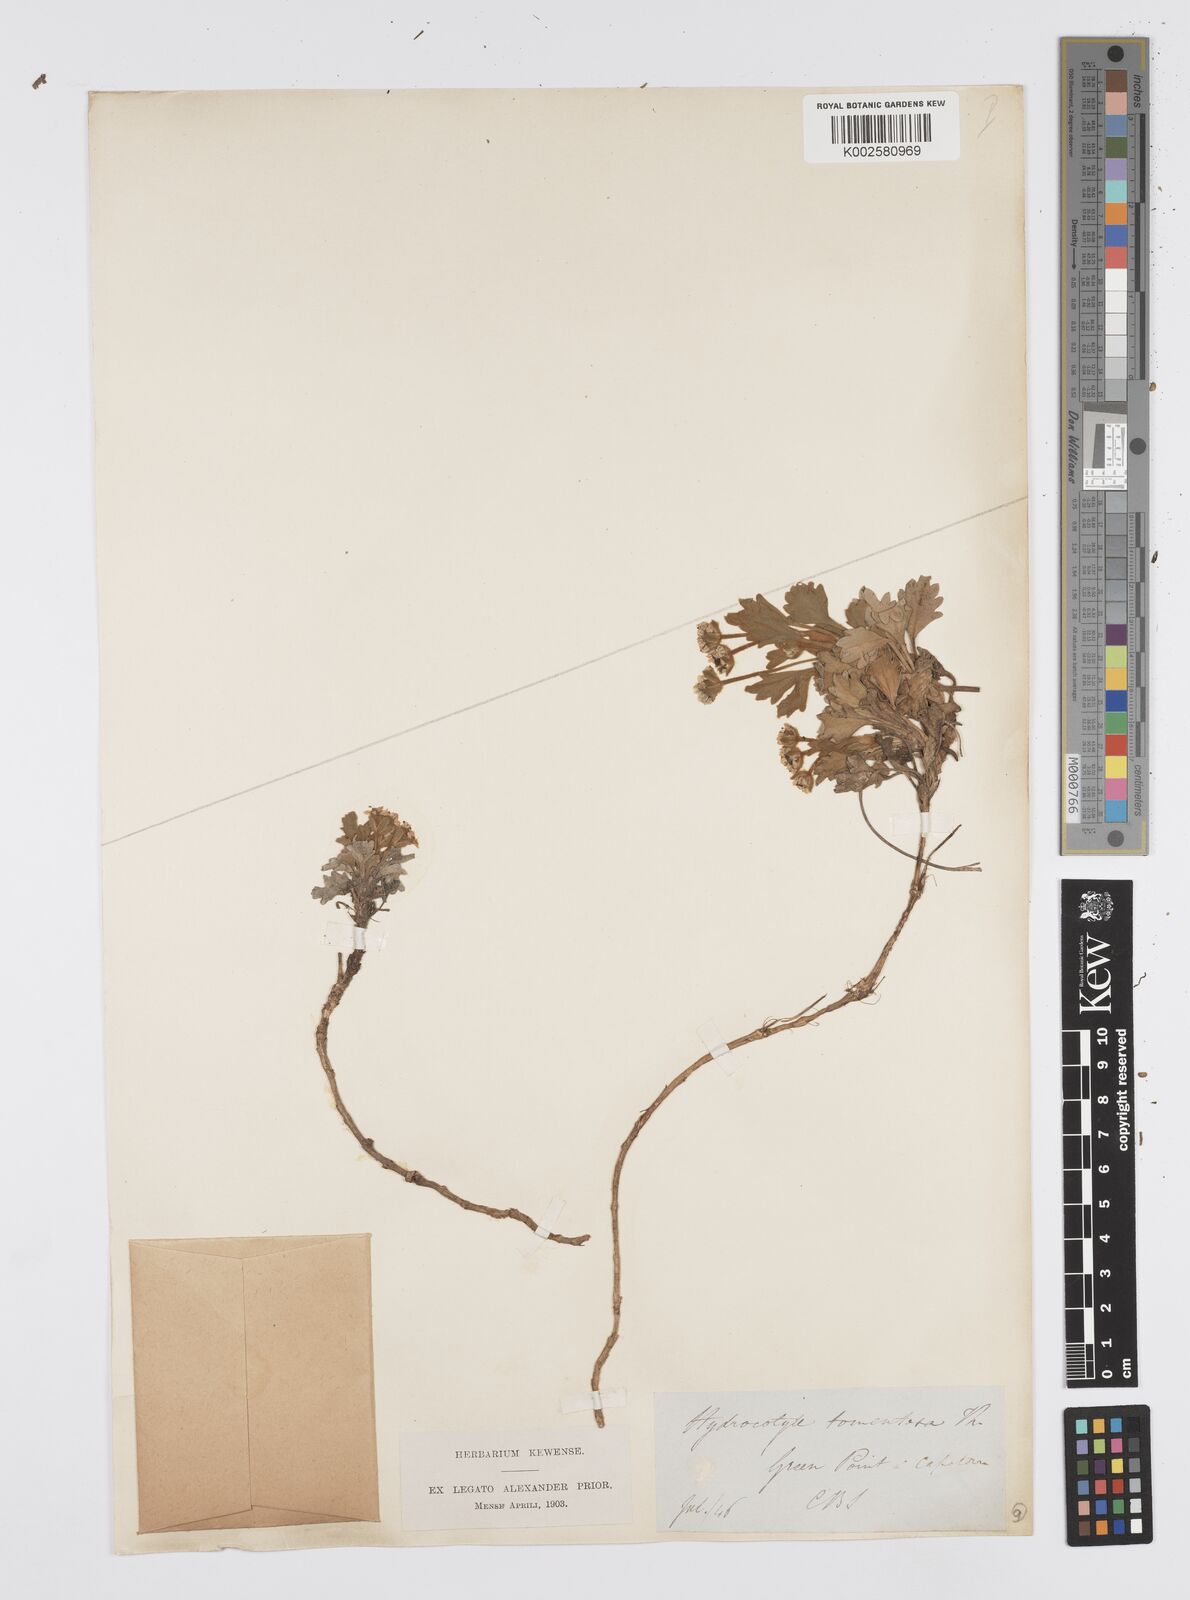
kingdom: Plantae
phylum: Tracheophyta
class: Magnoliopsida
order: Apiales
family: Apiaceae
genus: Centella
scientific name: Centella capensis
